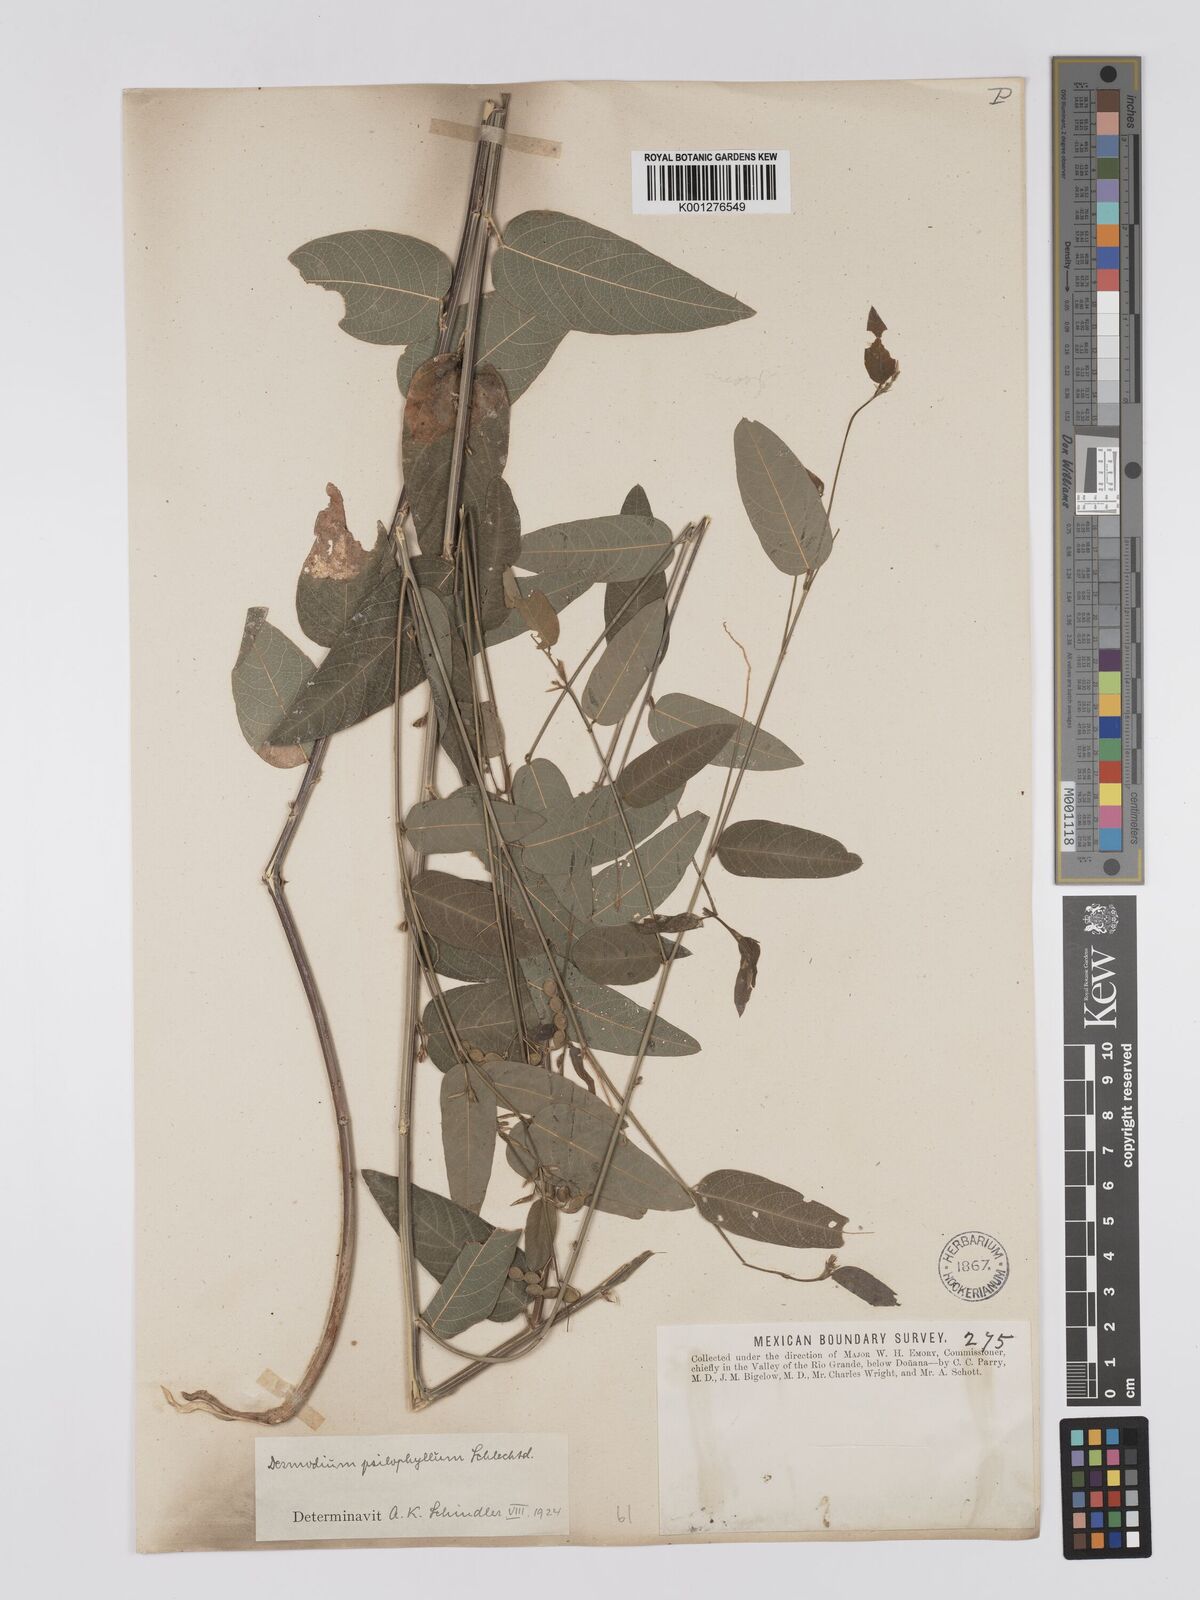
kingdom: Plantae
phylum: Tracheophyta
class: Magnoliopsida
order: Fabales
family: Fabaceae
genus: Desmodium
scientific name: Desmodium psilophyllum
